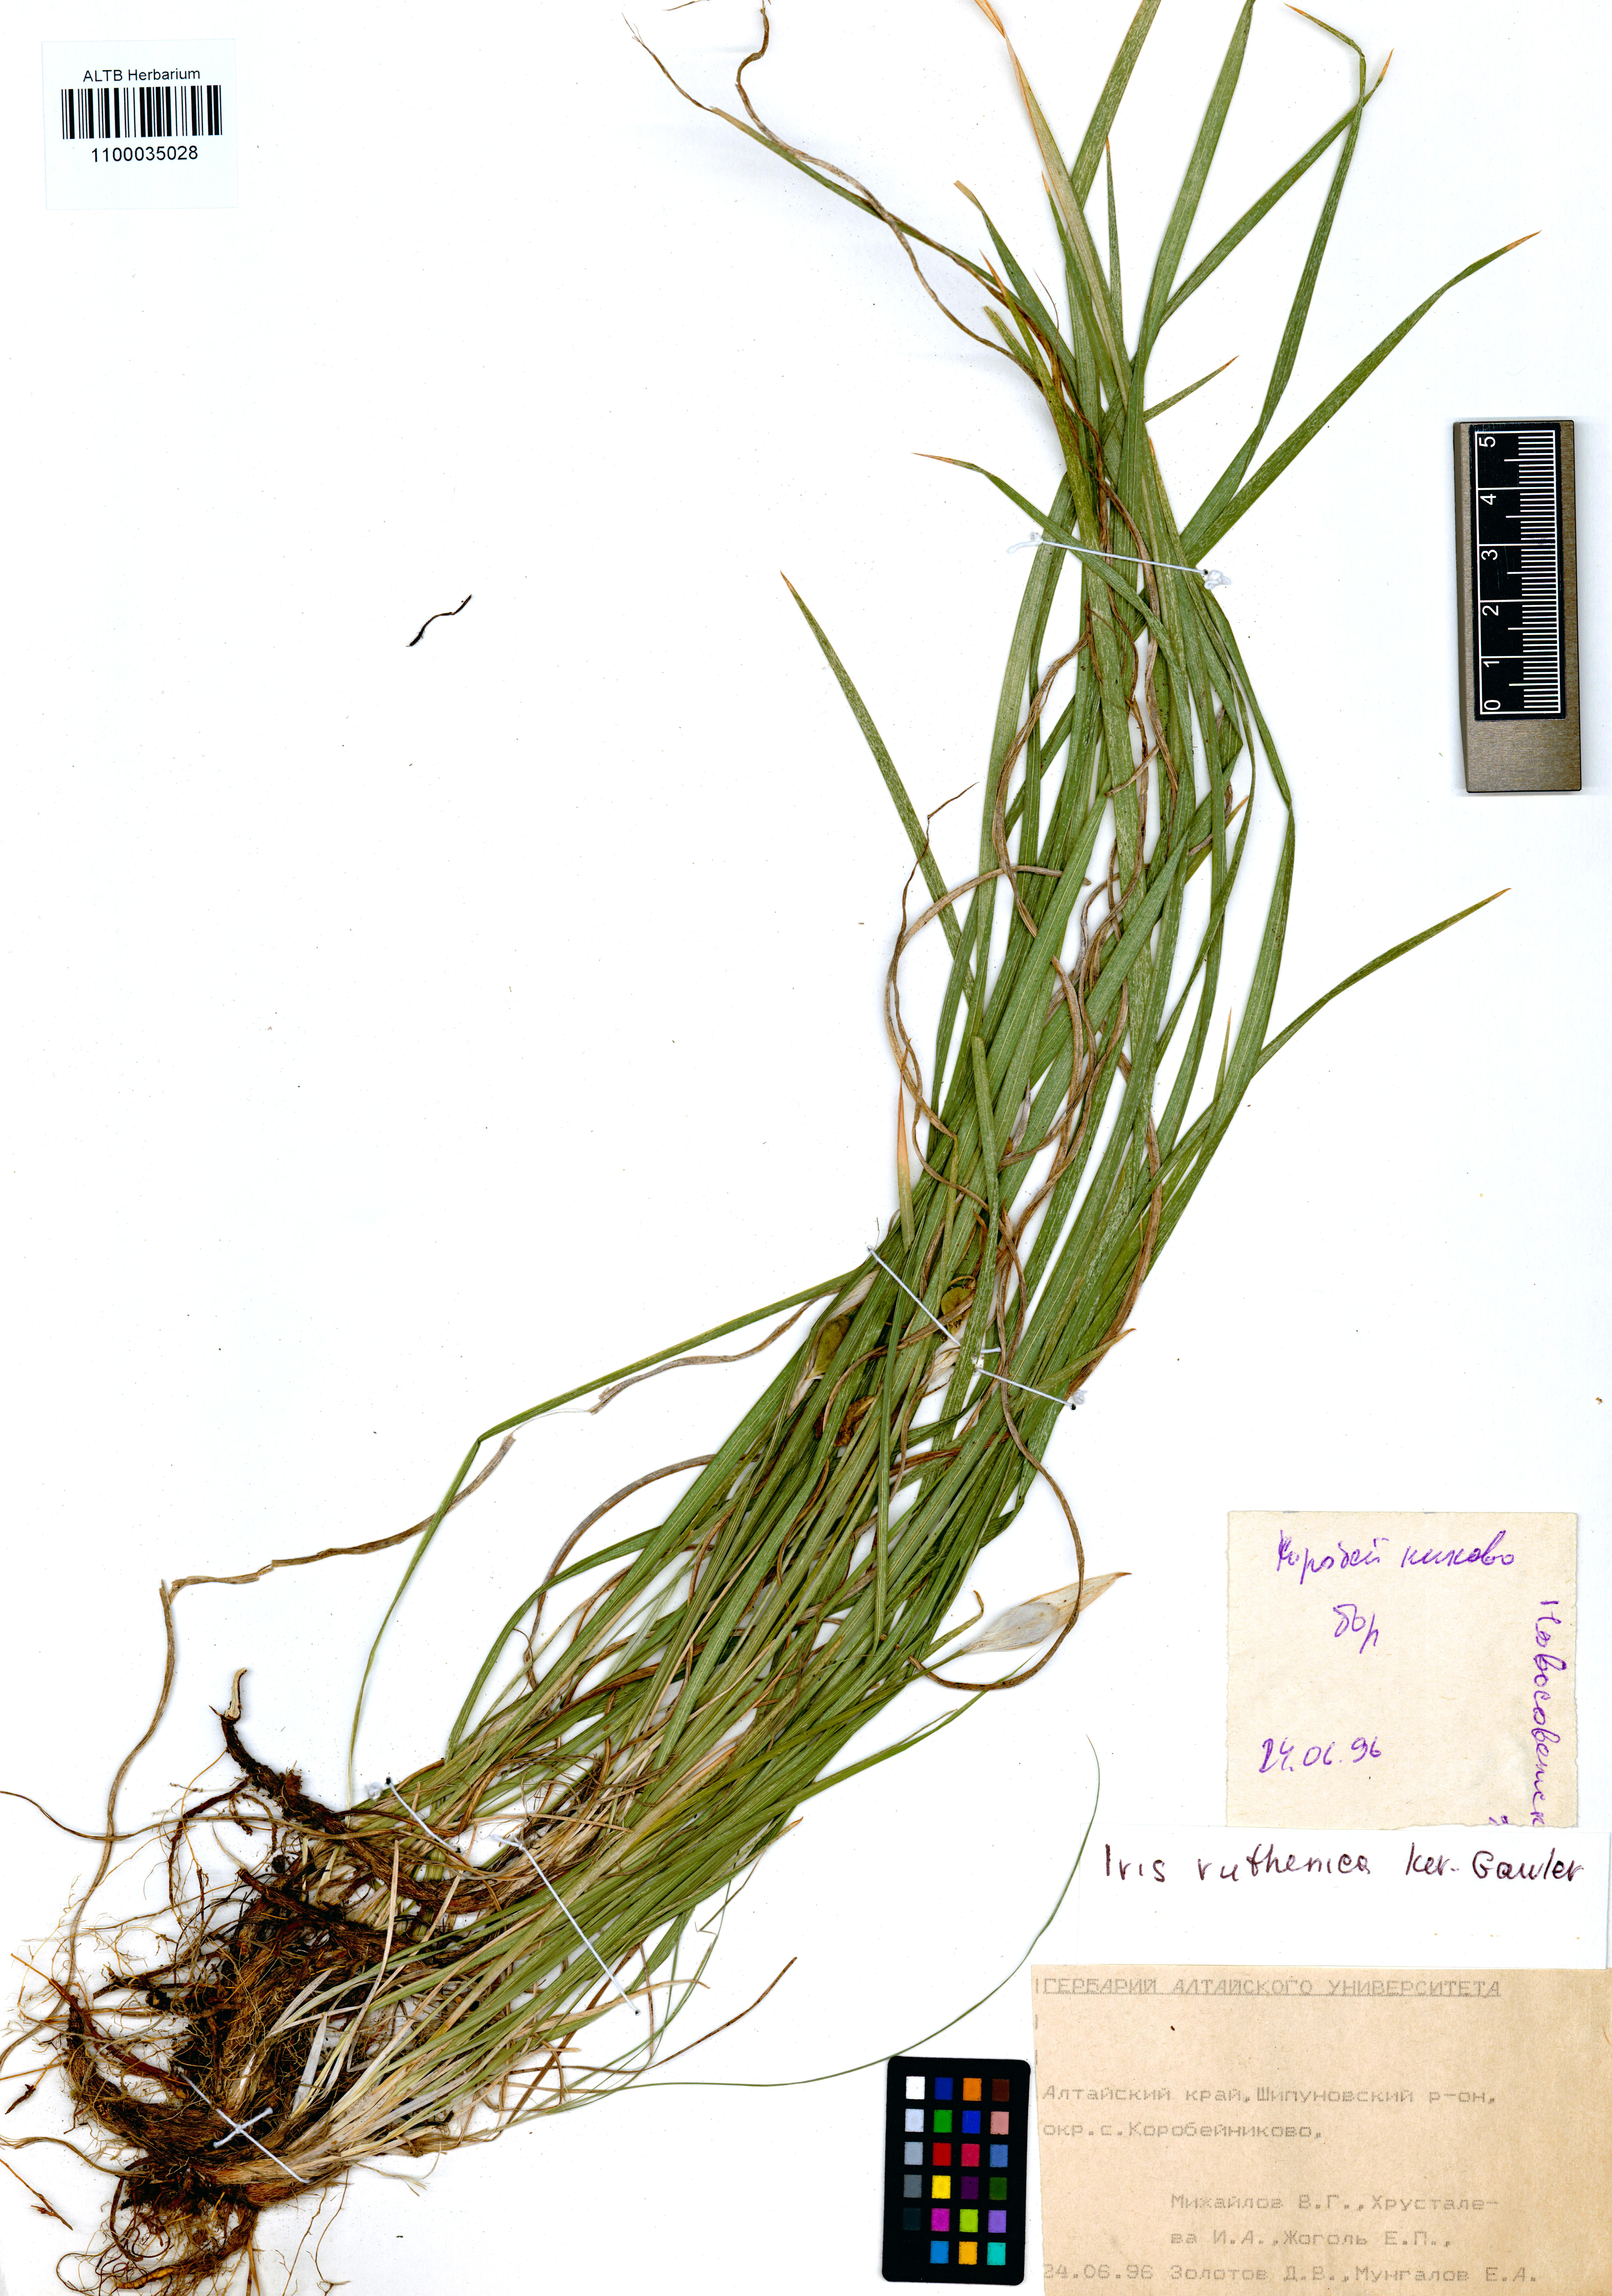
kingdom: Plantae
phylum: Tracheophyta
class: Liliopsida
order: Asparagales
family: Iridaceae
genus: Iris
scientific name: Iris ruthenica
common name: Purple-bract iris
